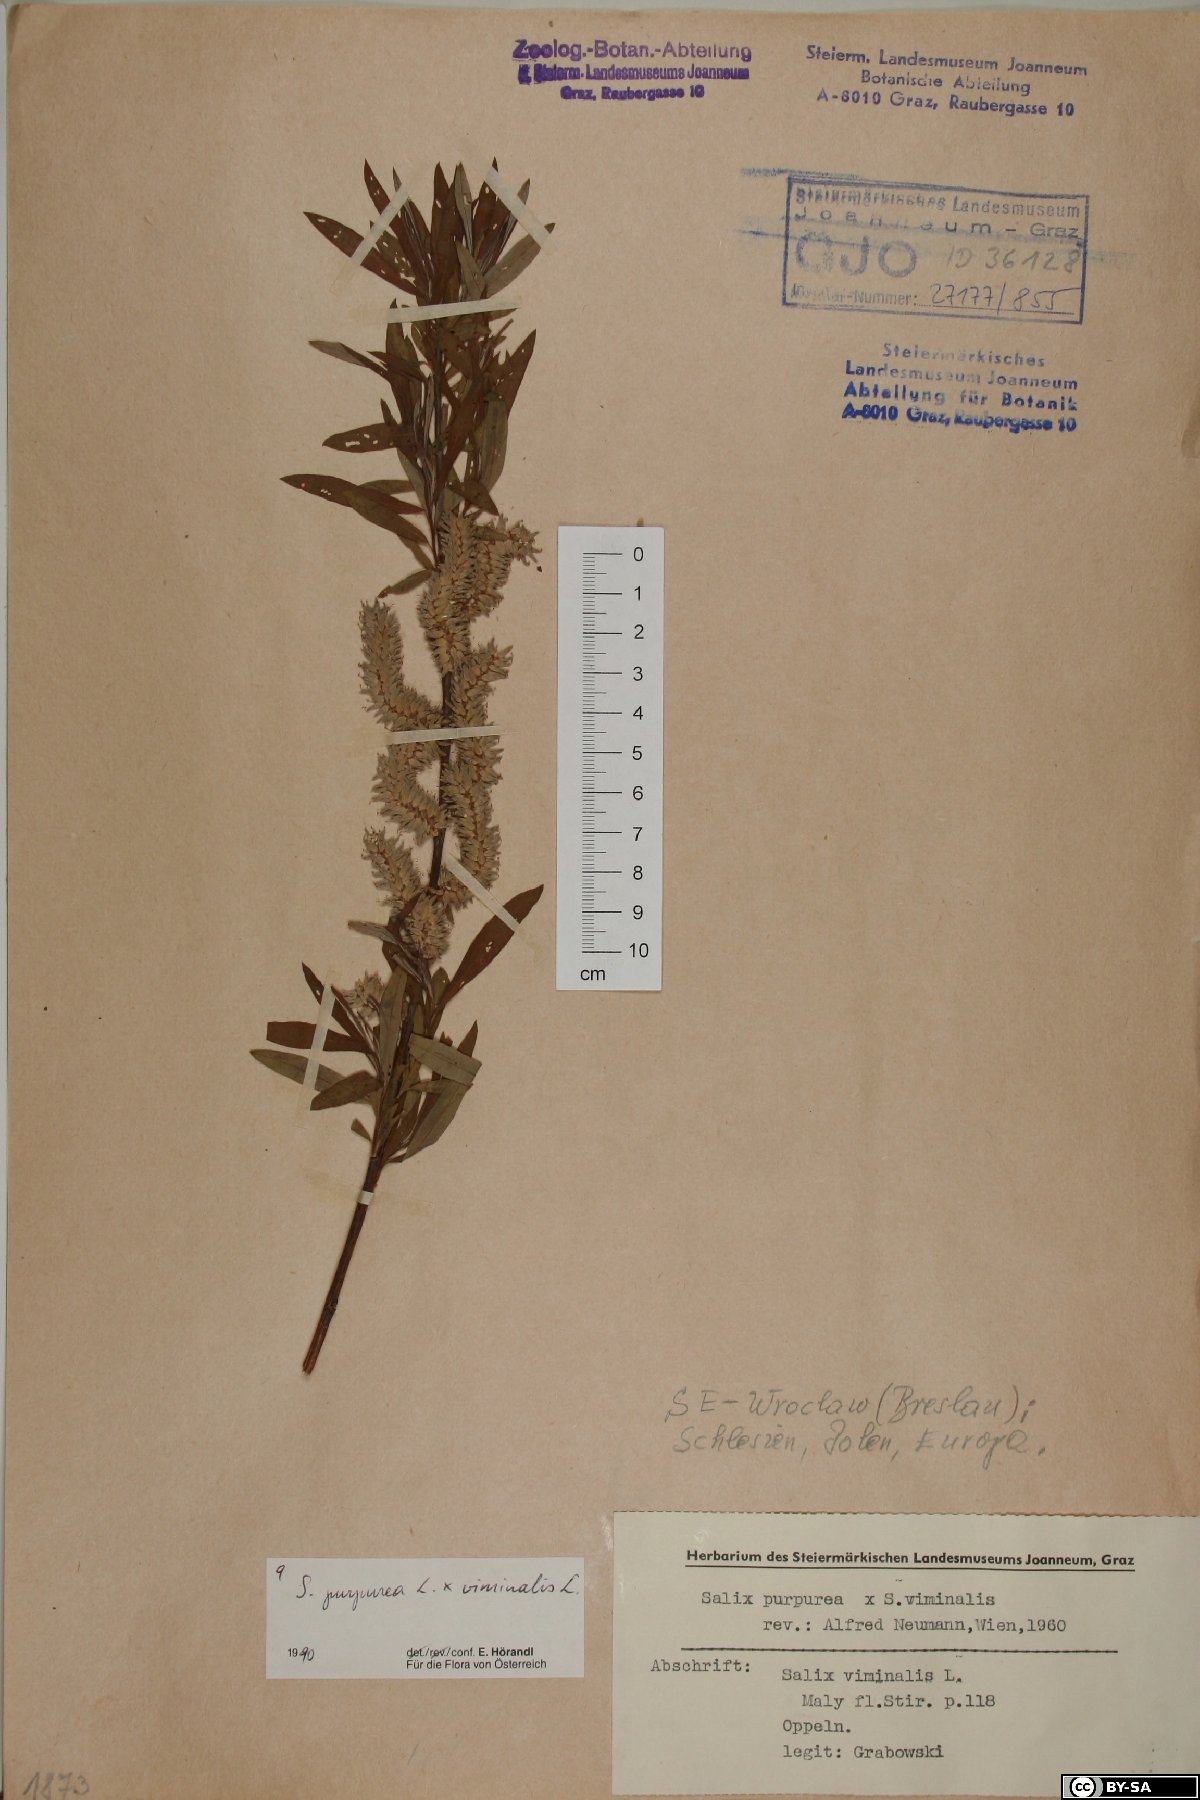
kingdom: Plantae
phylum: Tracheophyta
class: Magnoliopsida
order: Malpighiales
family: Salicaceae
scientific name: Salicaceae
